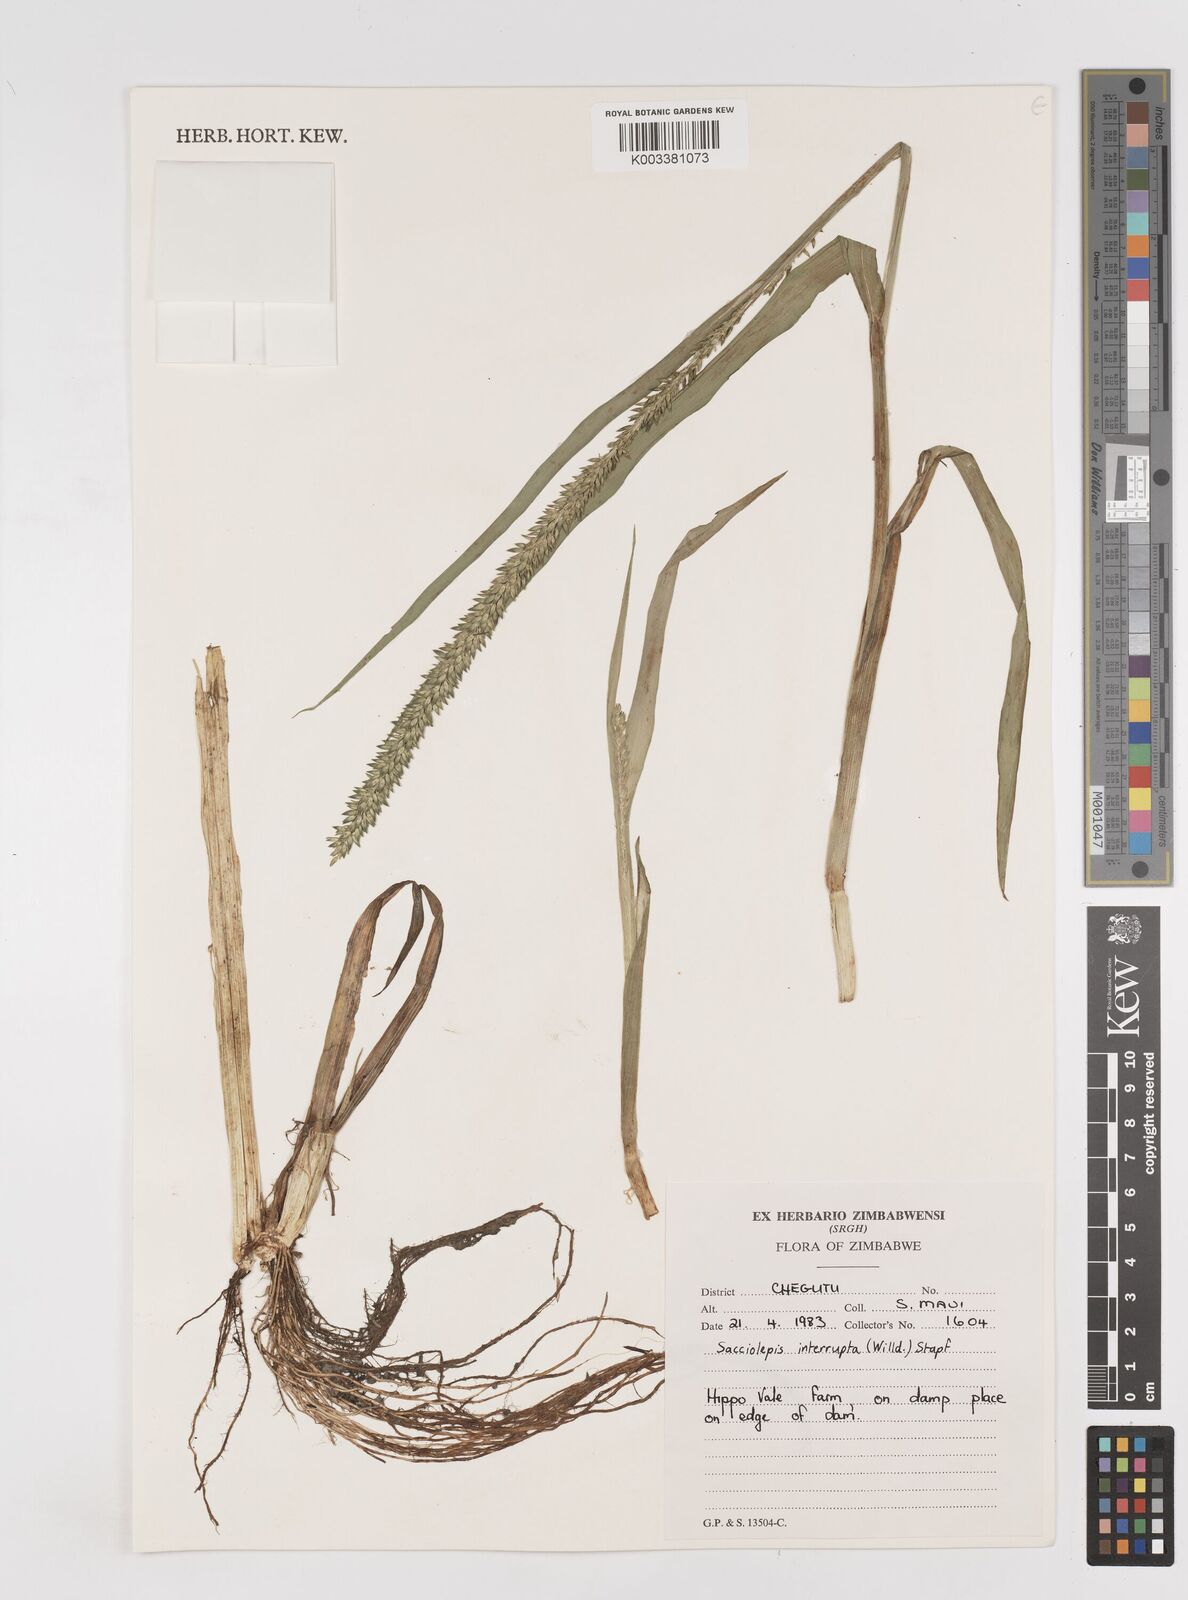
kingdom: Plantae
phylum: Tracheophyta
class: Liliopsida
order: Poales
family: Poaceae
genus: Sacciolepis
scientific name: Sacciolepis interrupta
